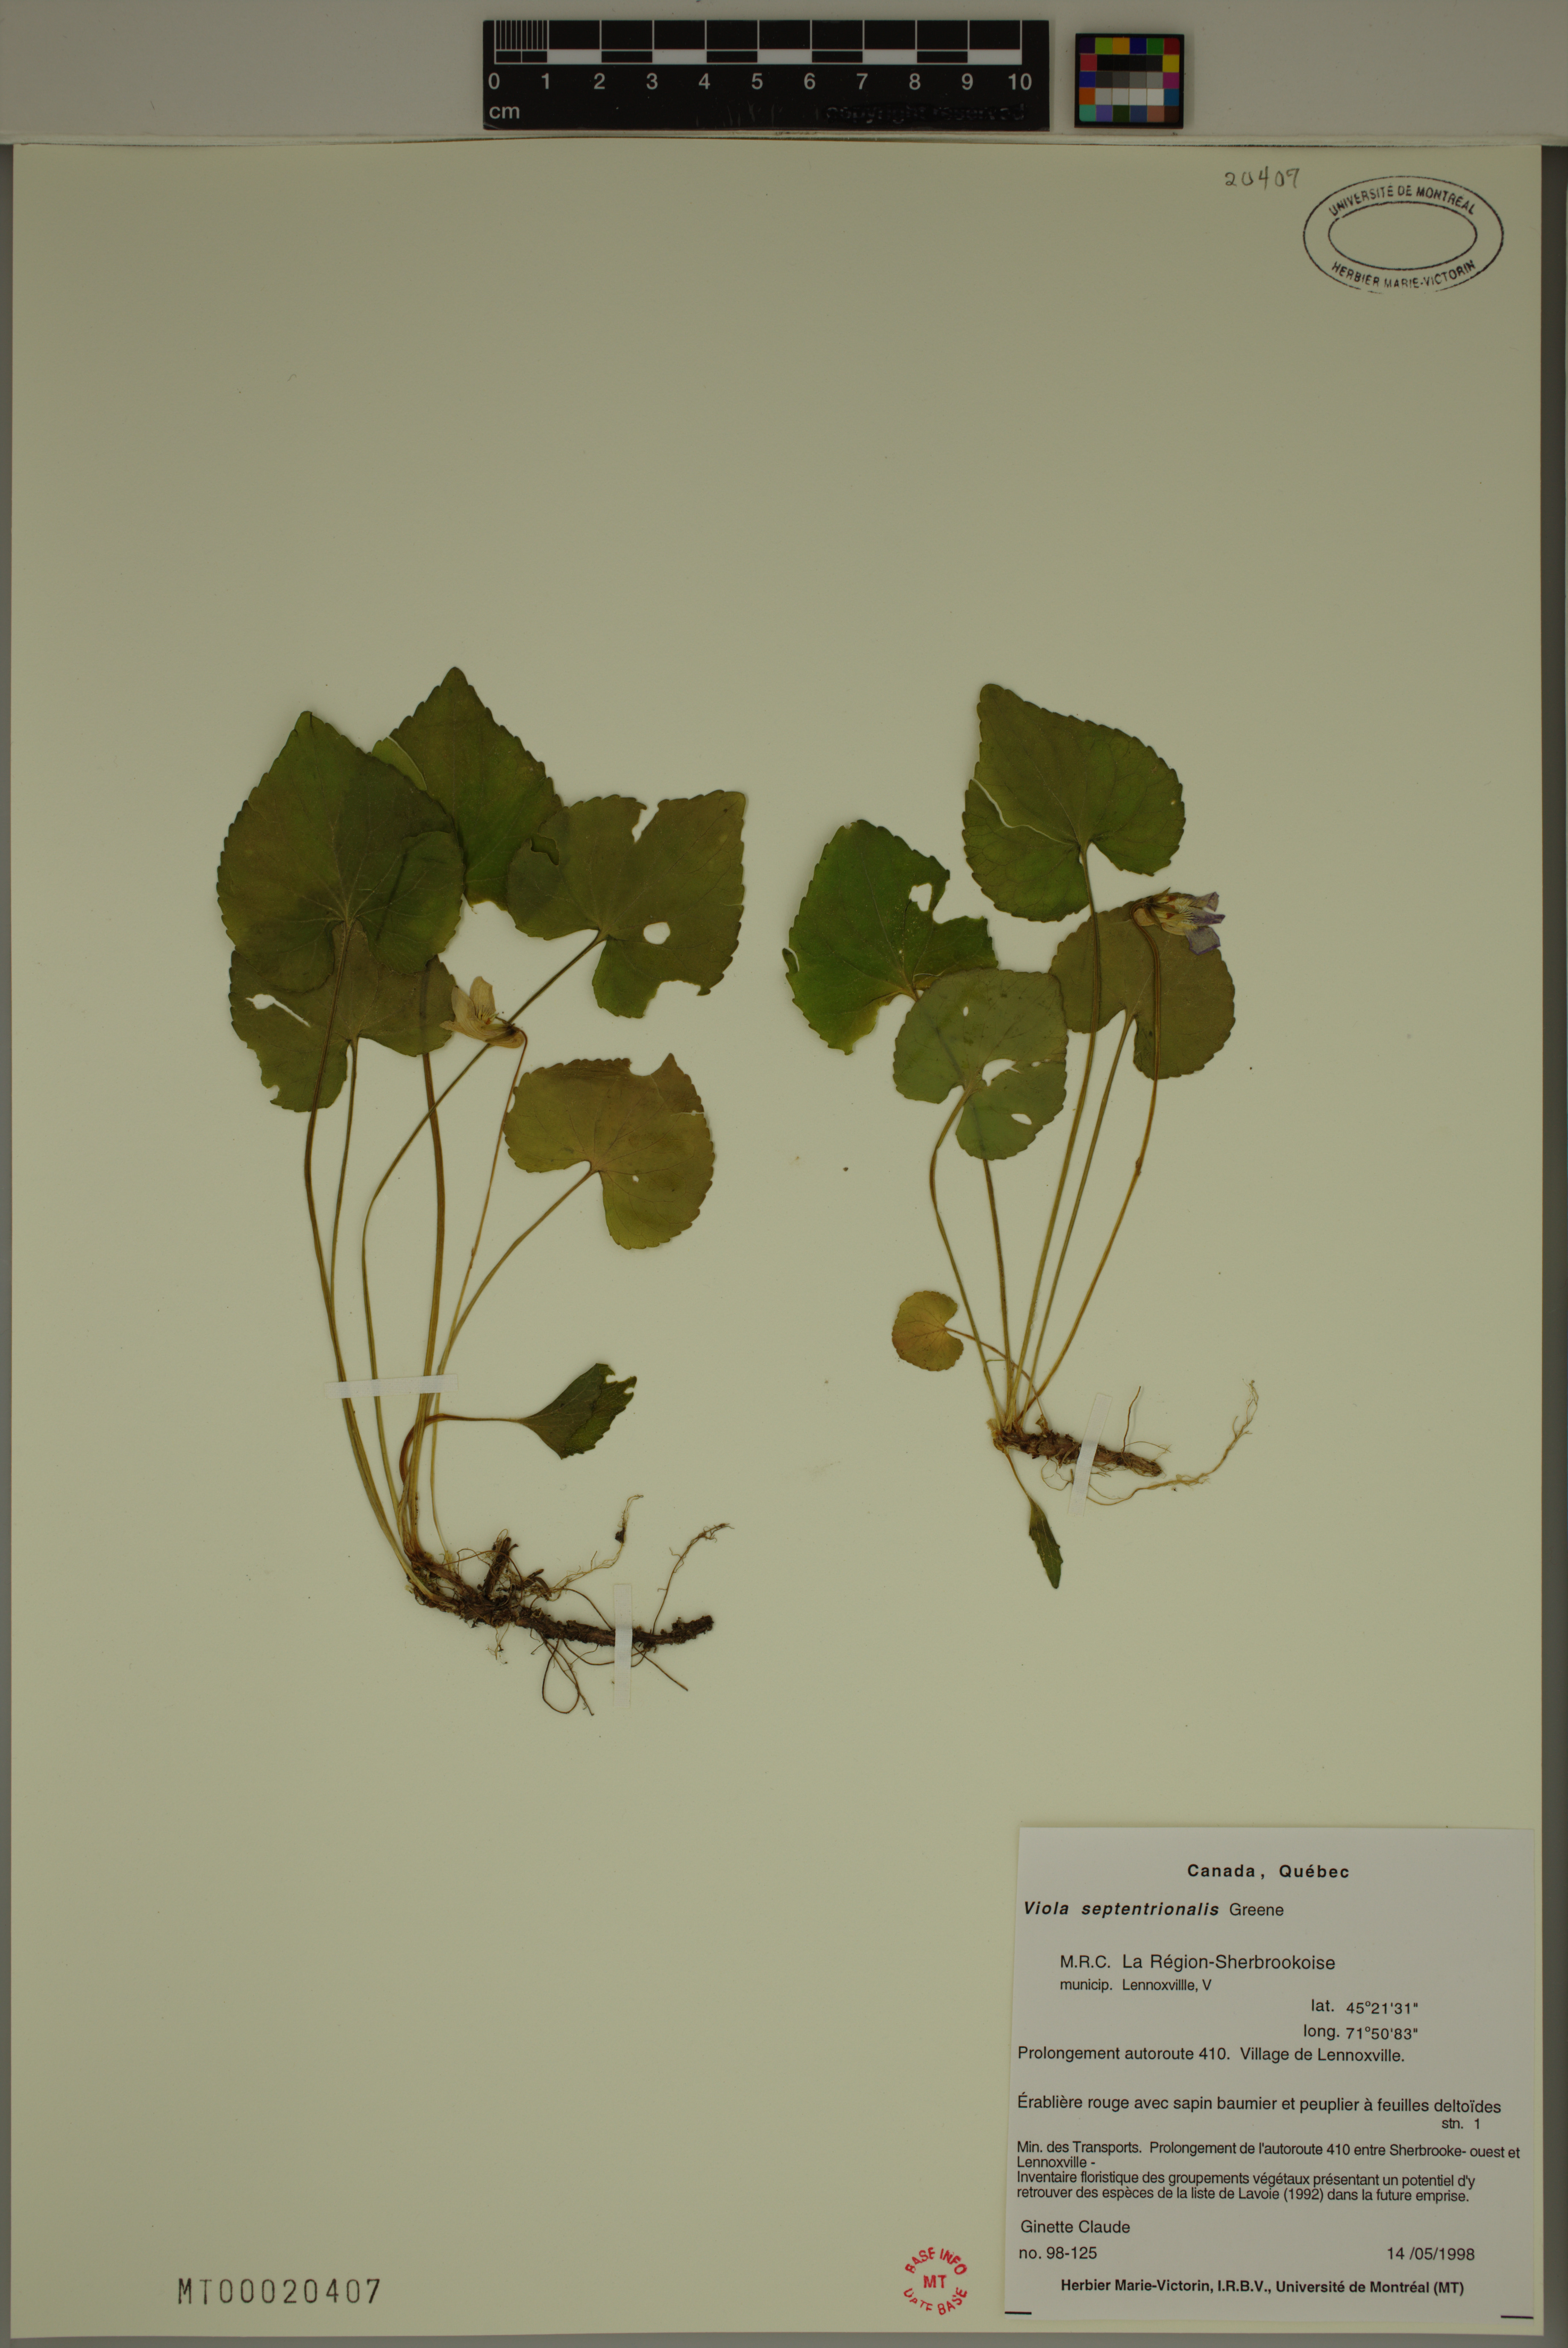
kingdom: Plantae
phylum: Tracheophyta
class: Magnoliopsida
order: Malpighiales
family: Violaceae
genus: Viola
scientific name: Viola sororia
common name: Dooryard violet
